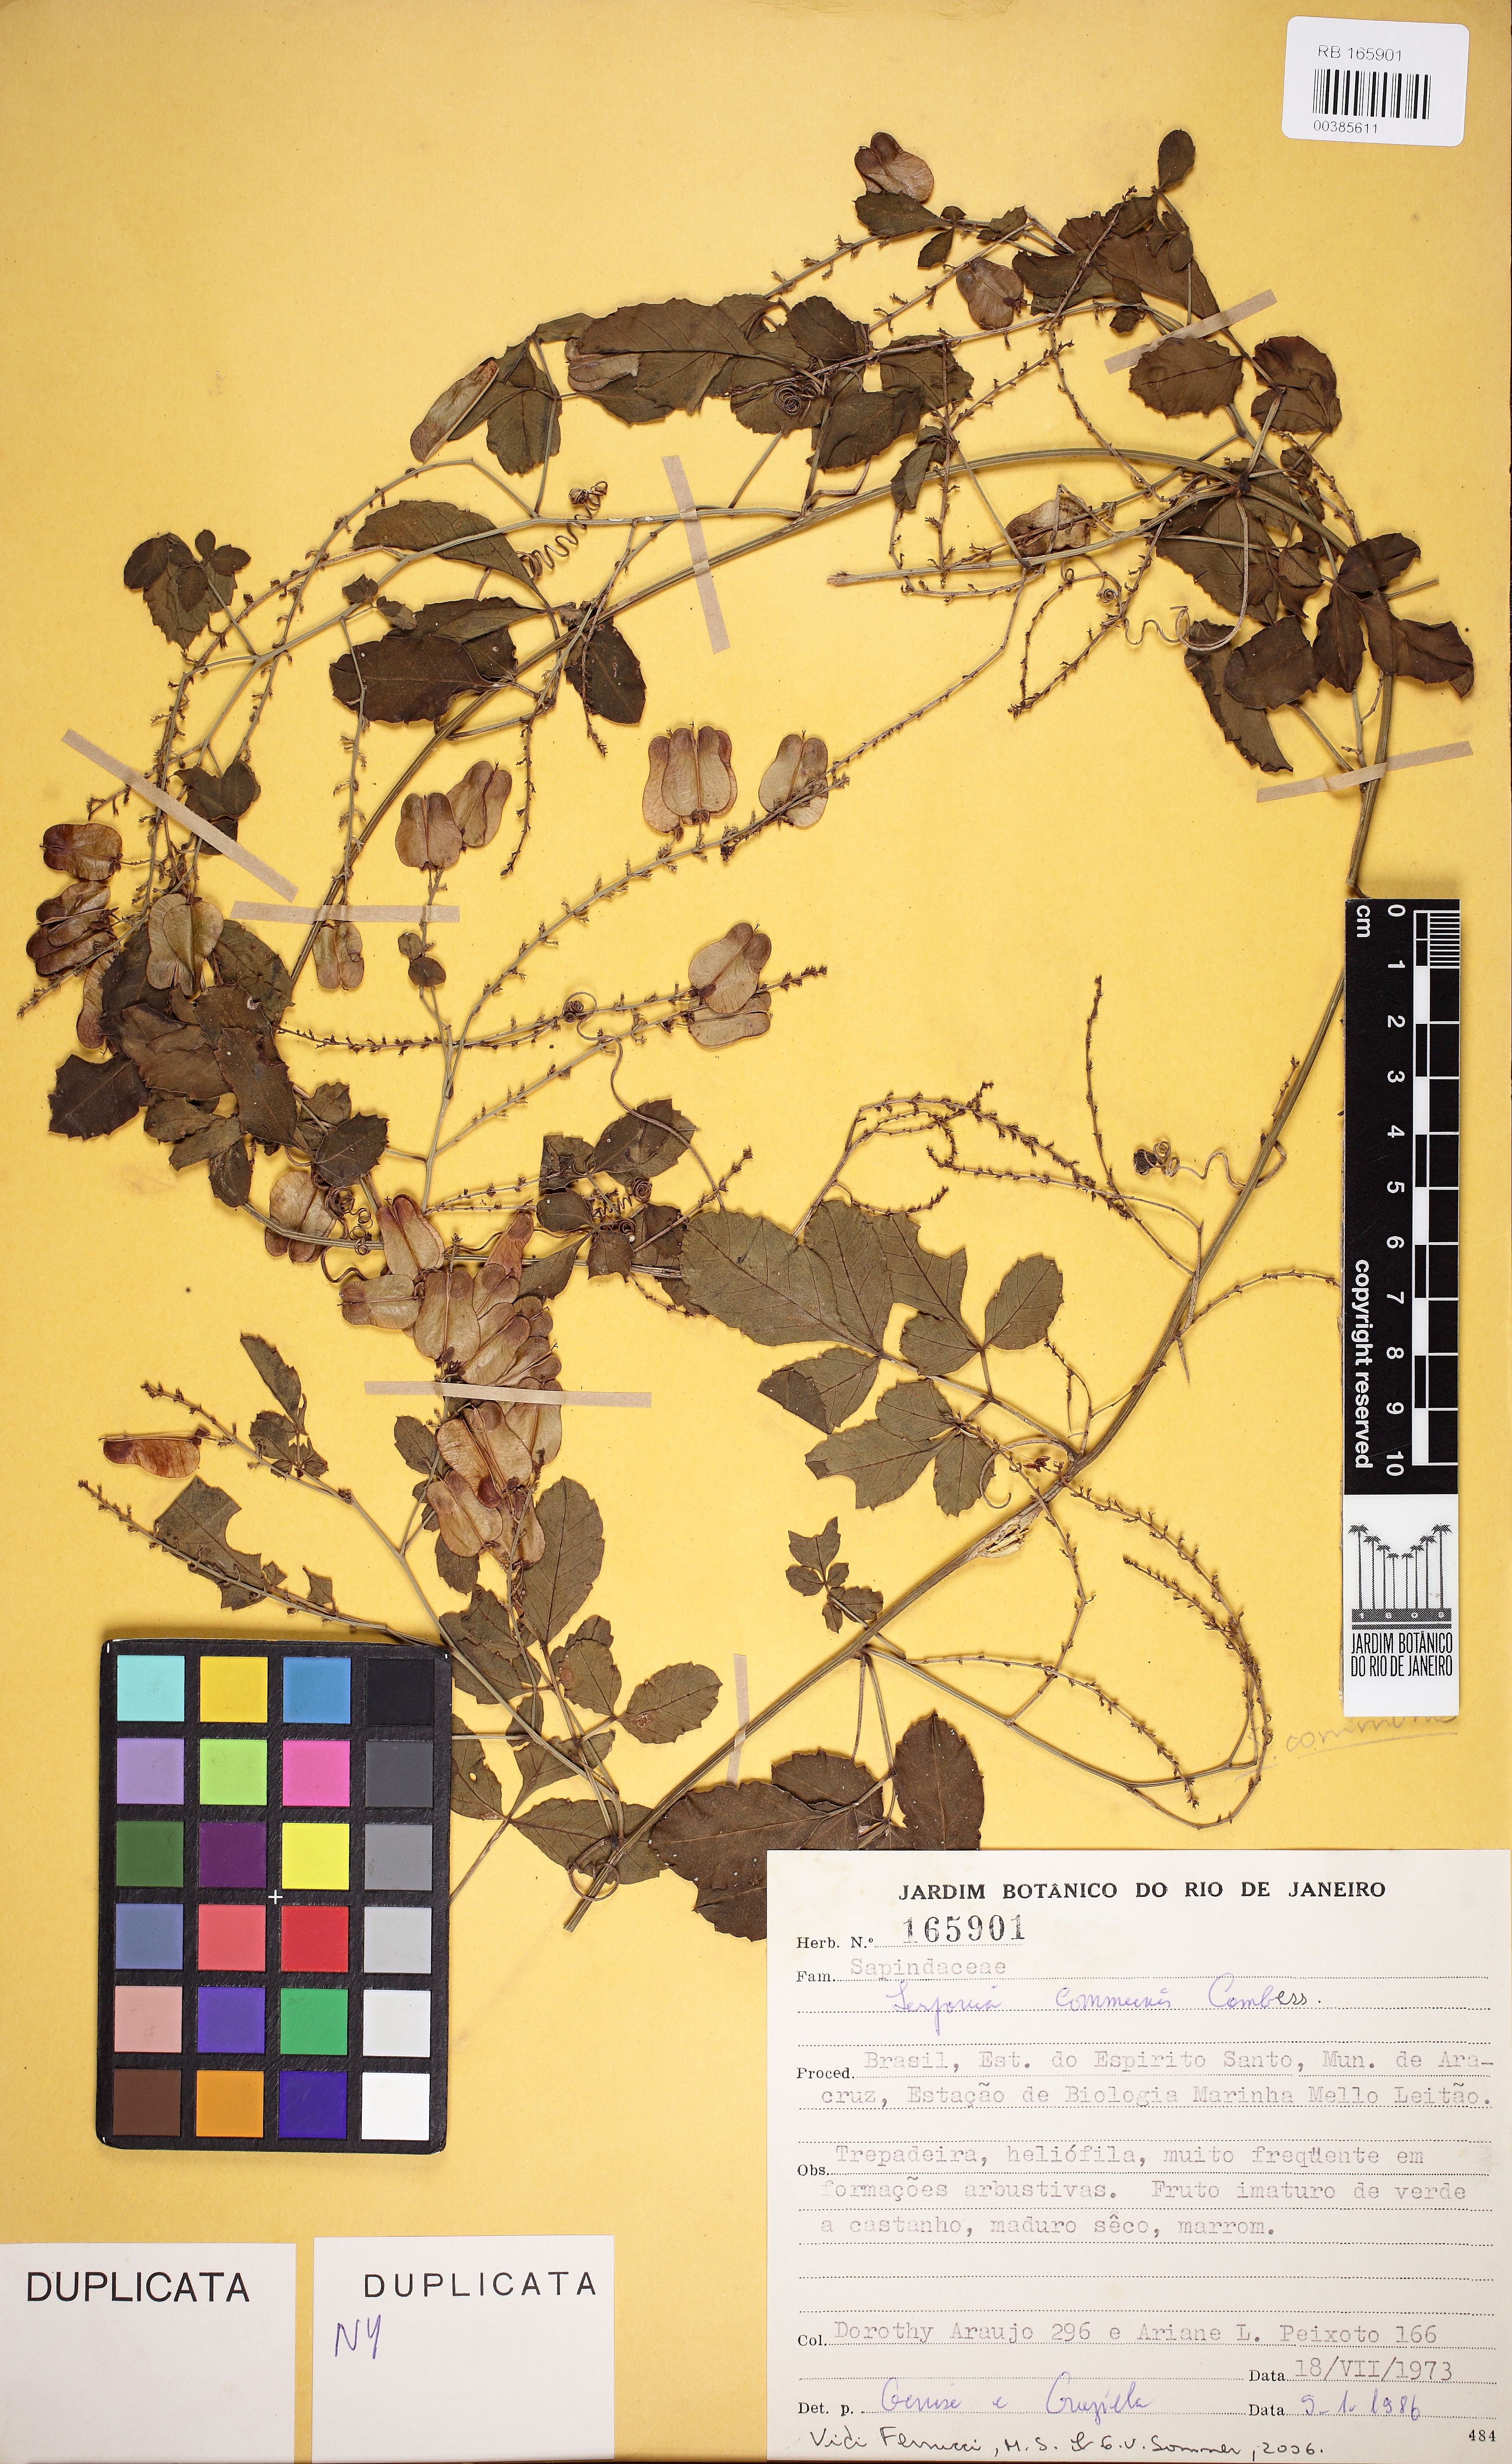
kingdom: Plantae
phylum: Tracheophyta
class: Magnoliopsida
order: Sapindales
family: Sapindaceae
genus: Serjania
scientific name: Serjania communis
